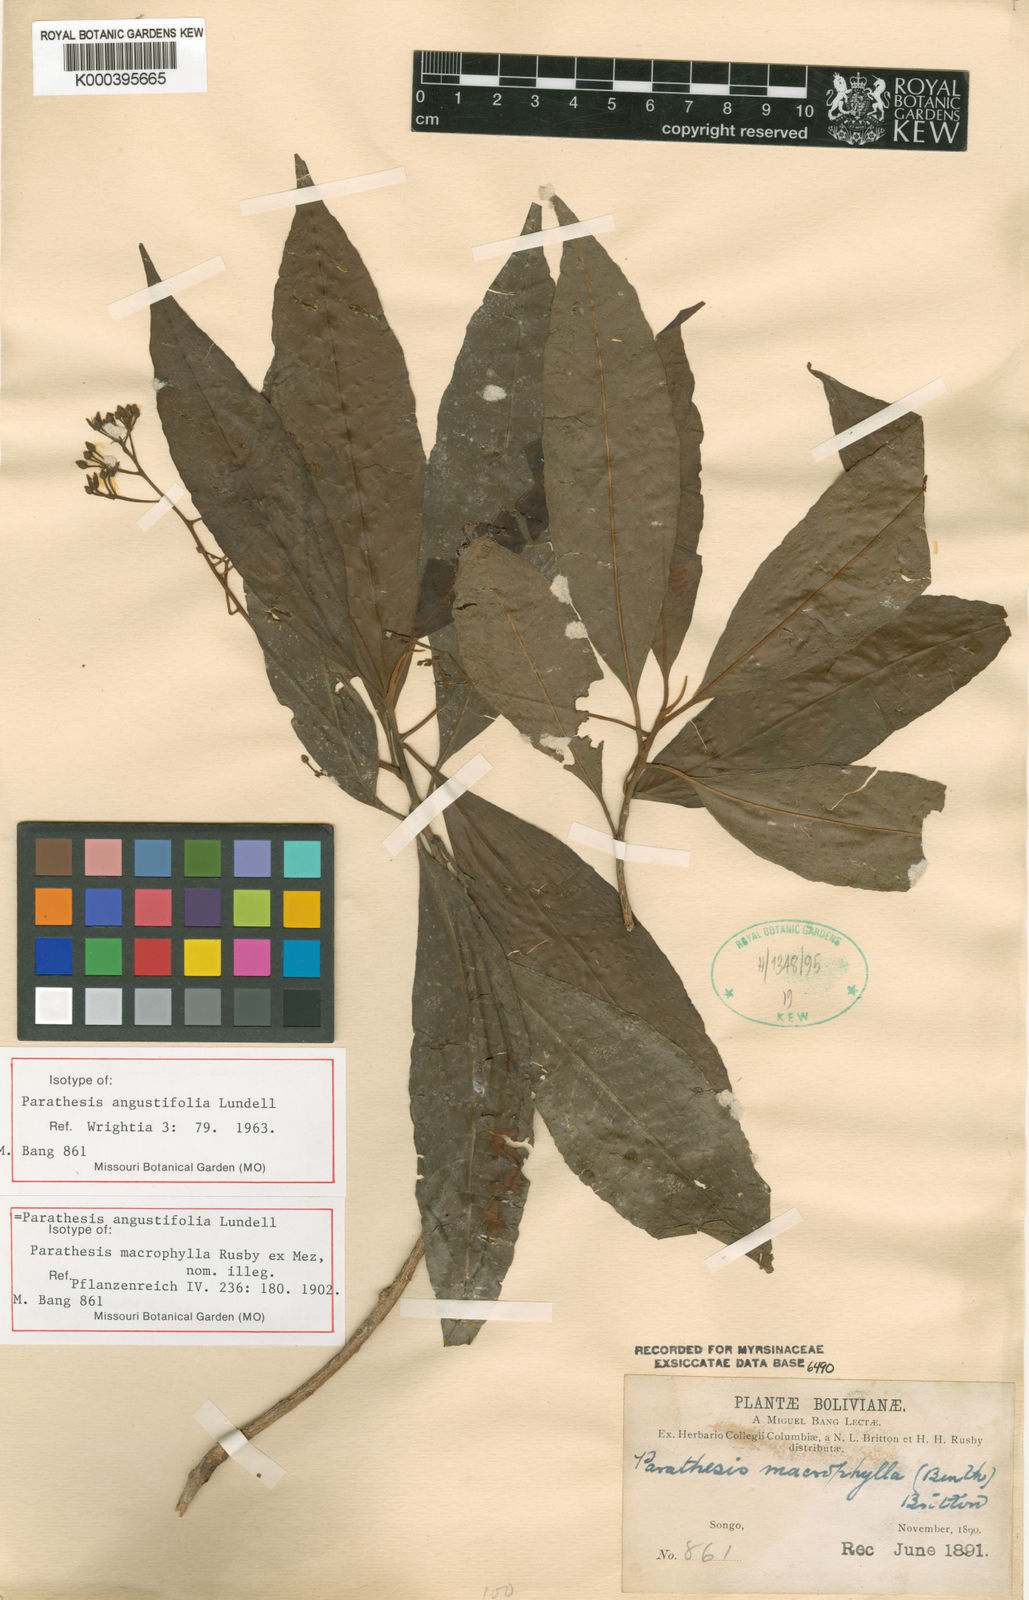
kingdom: Plantae
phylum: Tracheophyta
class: Magnoliopsida
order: Ericales
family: Primulaceae
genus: Parathesis
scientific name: Parathesis angustifolia
